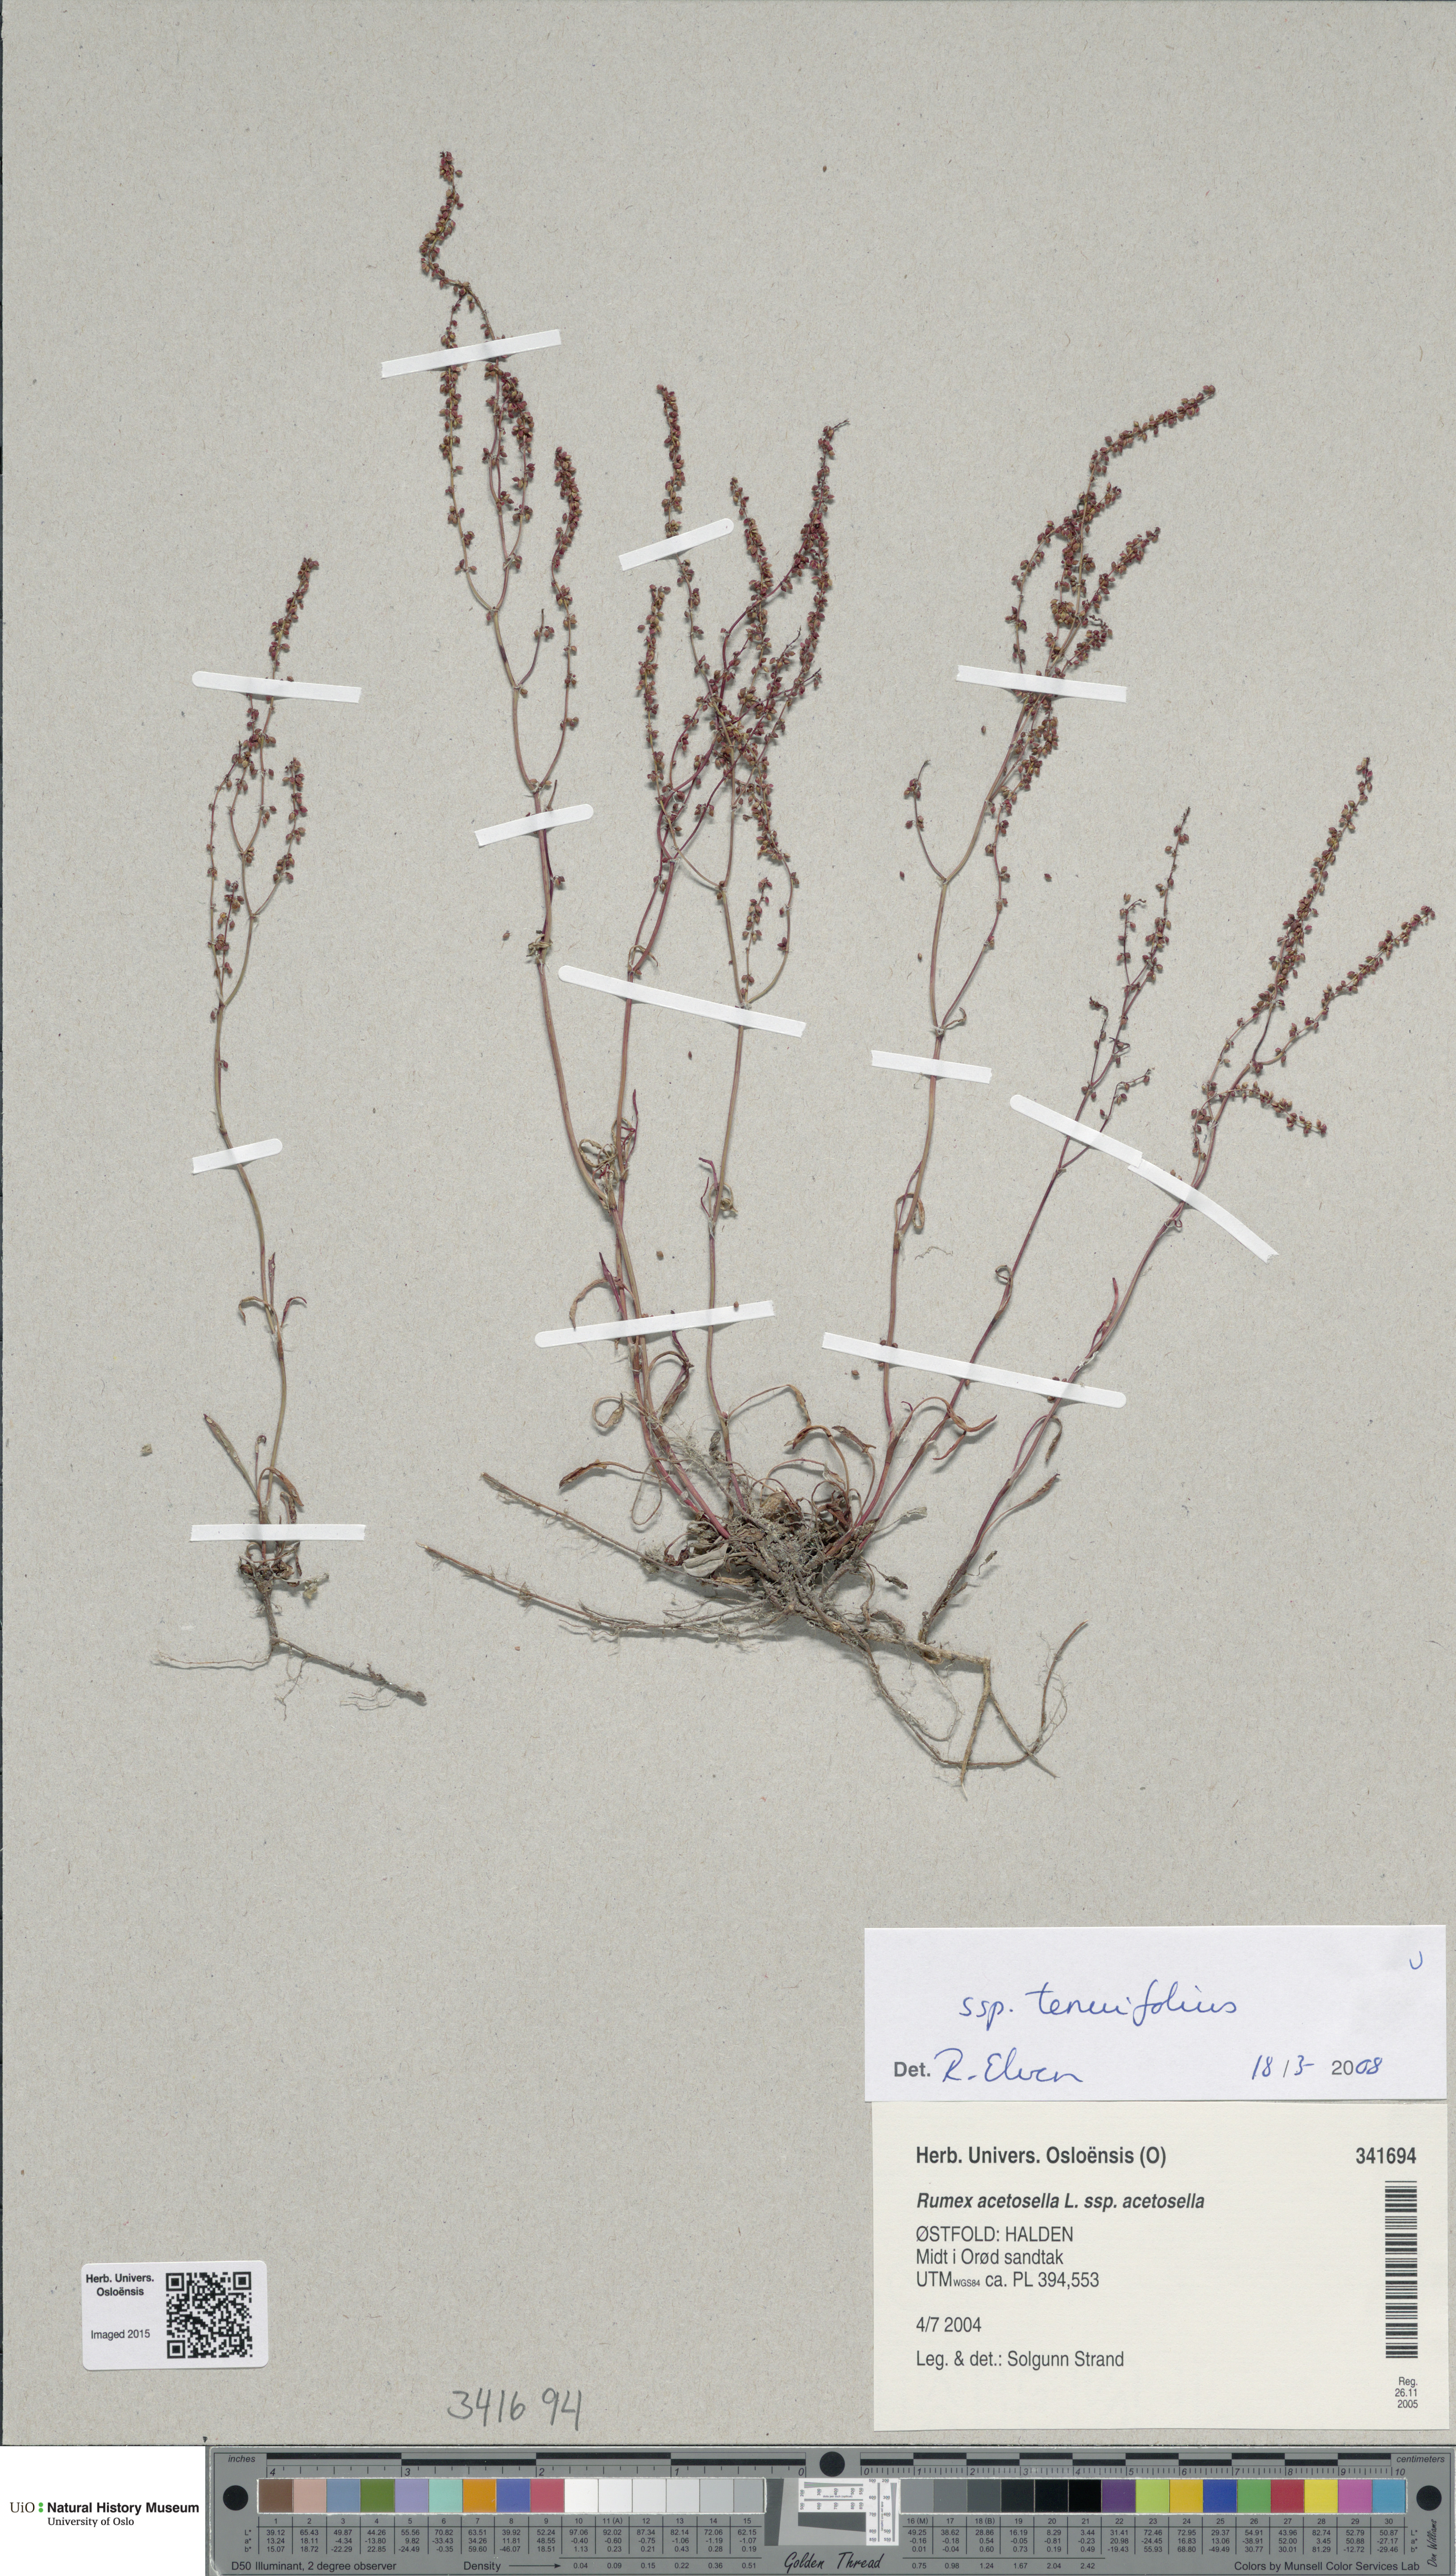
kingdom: Plantae
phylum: Tracheophyta
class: Magnoliopsida
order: Caryophyllales
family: Polygonaceae
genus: Rumex
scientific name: Rumex acetosella
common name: Common sheep sorrel
